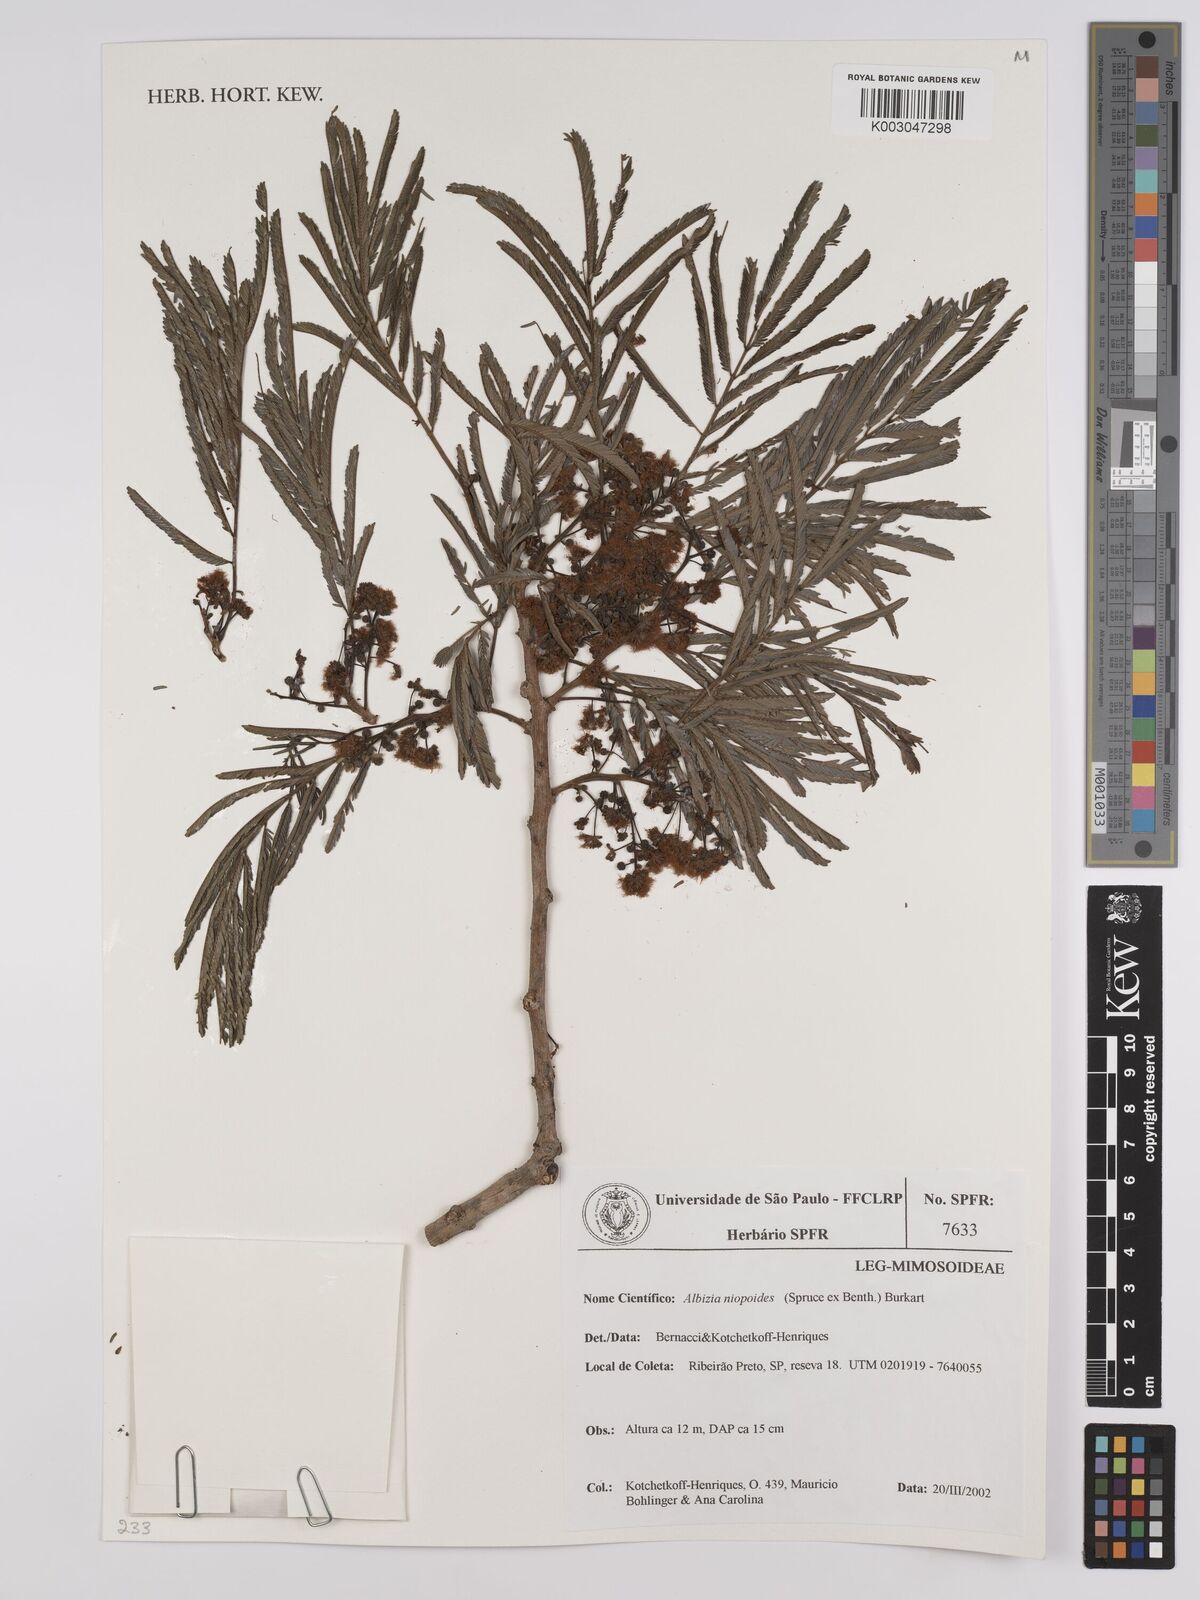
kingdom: Plantae
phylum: Tracheophyta
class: Magnoliopsida
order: Fabales
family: Fabaceae
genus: Albizia
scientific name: Albizia niopoides
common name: Silk tree
